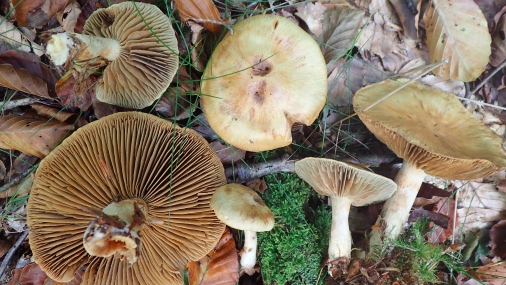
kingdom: Fungi
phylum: Basidiomycota
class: Agaricomycetes
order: Agaricales
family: Cortinariaceae
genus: Cortinarius
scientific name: Cortinarius subtortus
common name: olivengul slørhat
